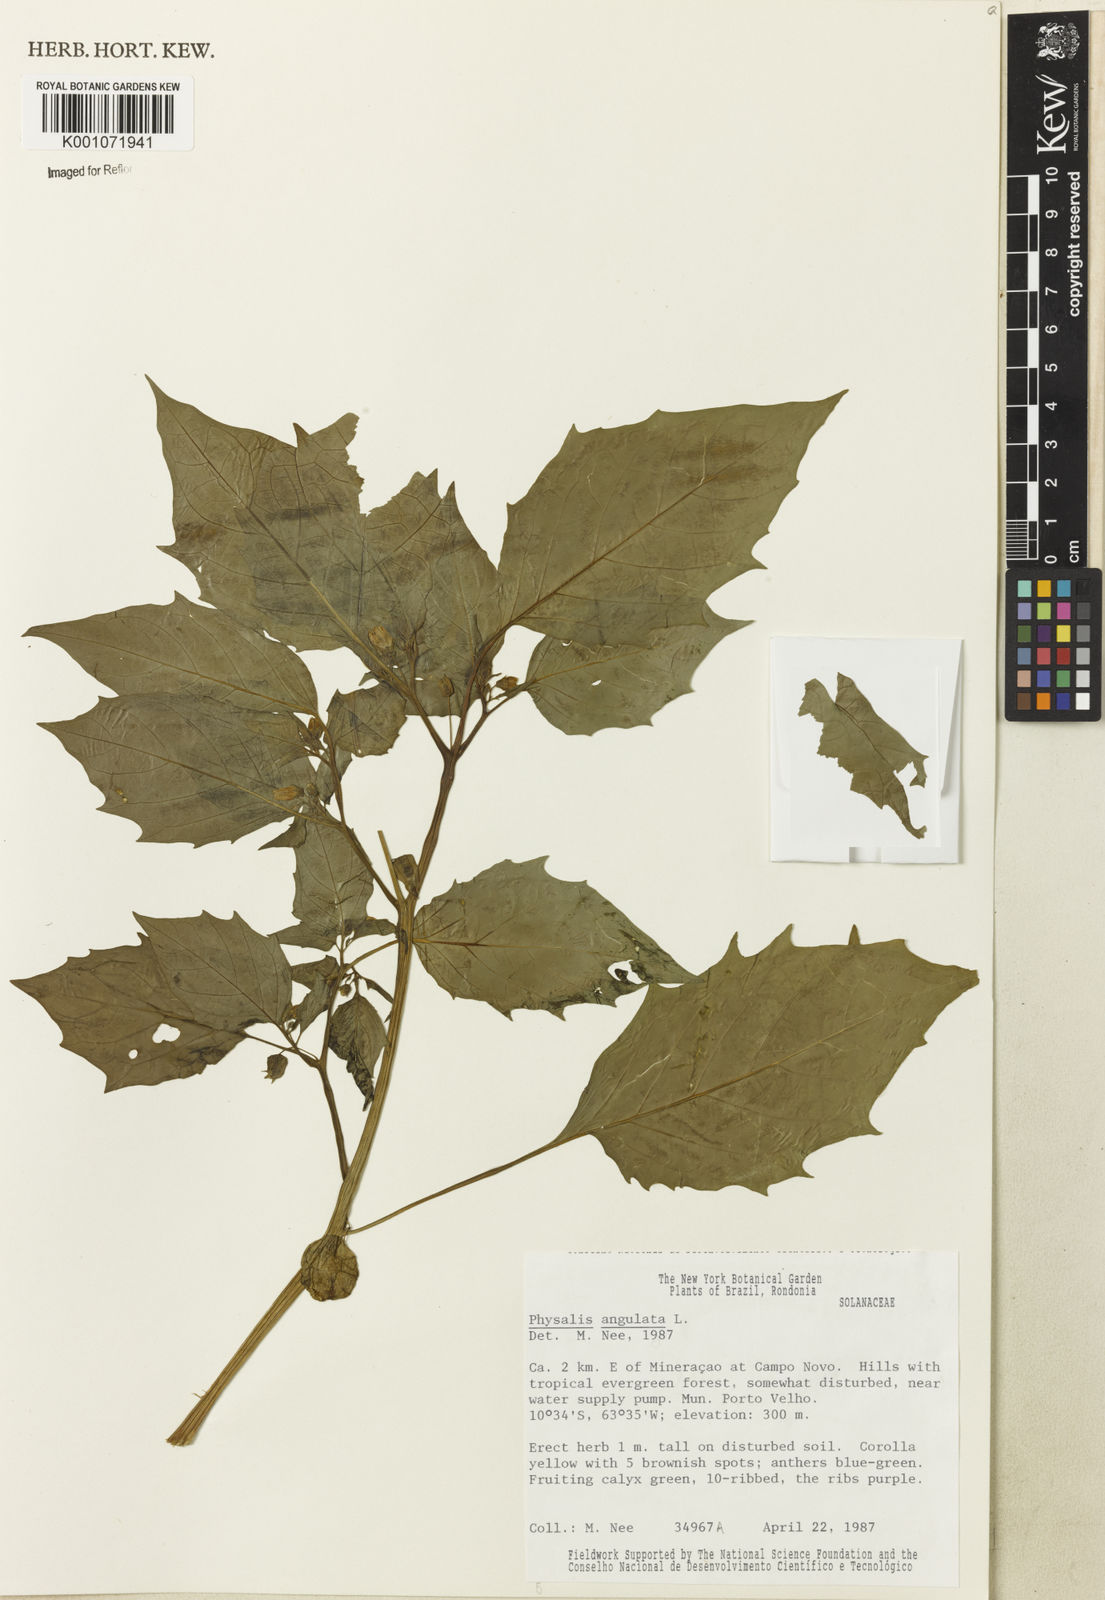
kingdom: Plantae
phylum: Tracheophyta
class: Magnoliopsida
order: Solanales
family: Solanaceae
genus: Physalis
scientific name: Physalis angulata
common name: Angular winter-cherry
